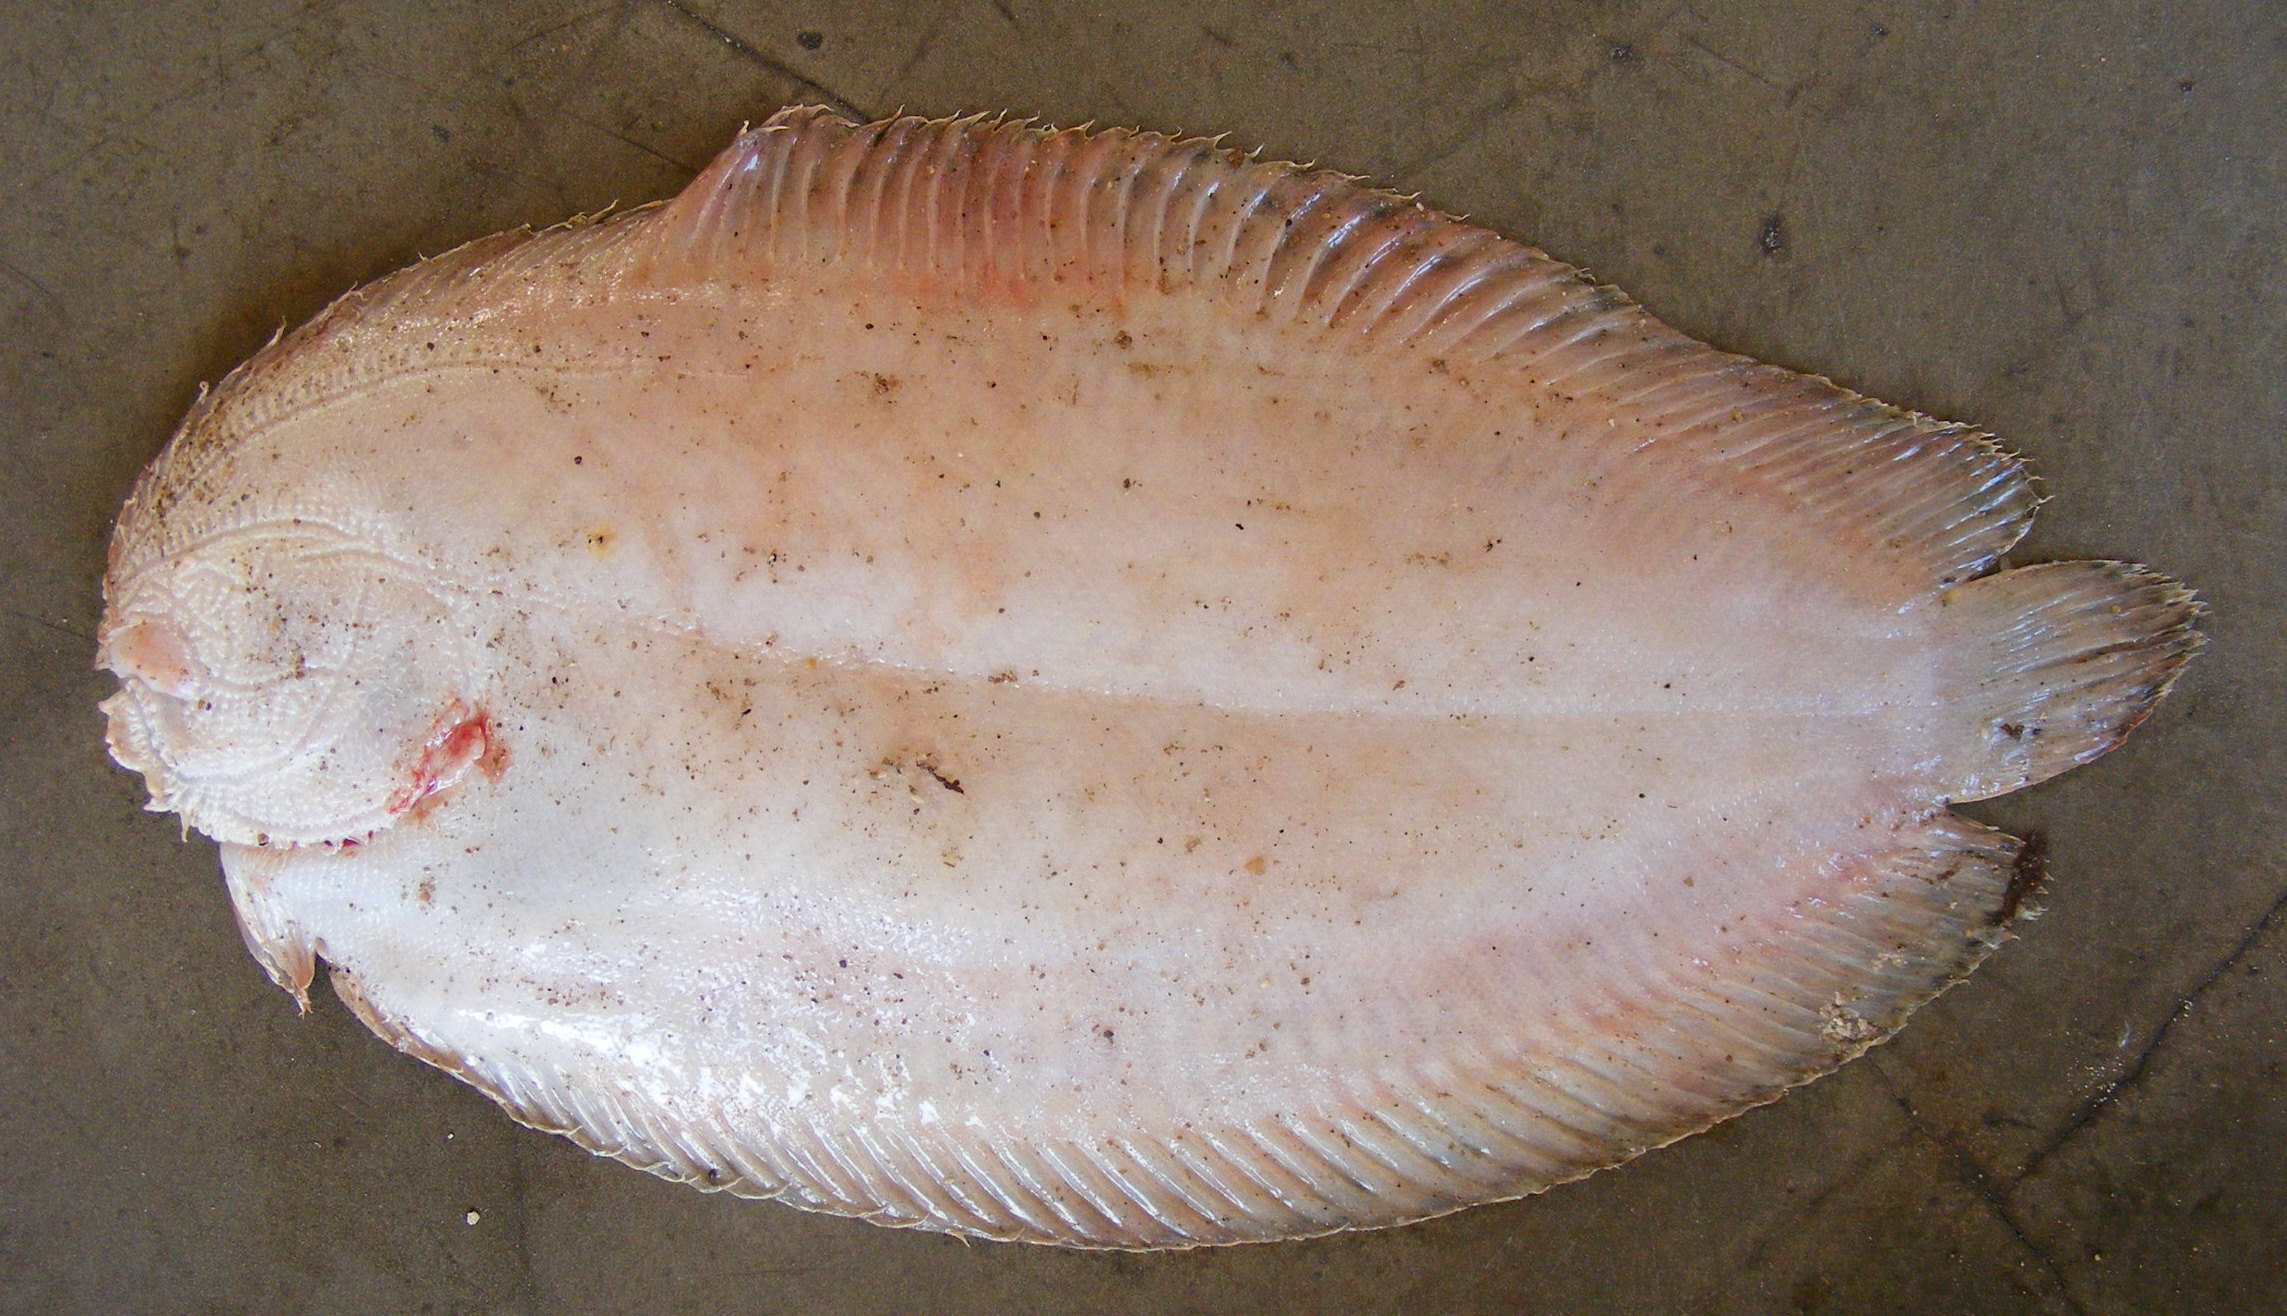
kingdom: Animalia
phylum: Chordata
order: Pleuronectiformes
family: Soleidae
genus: Pardachirus
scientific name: Pardachirus marmoratus
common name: Finless sole
